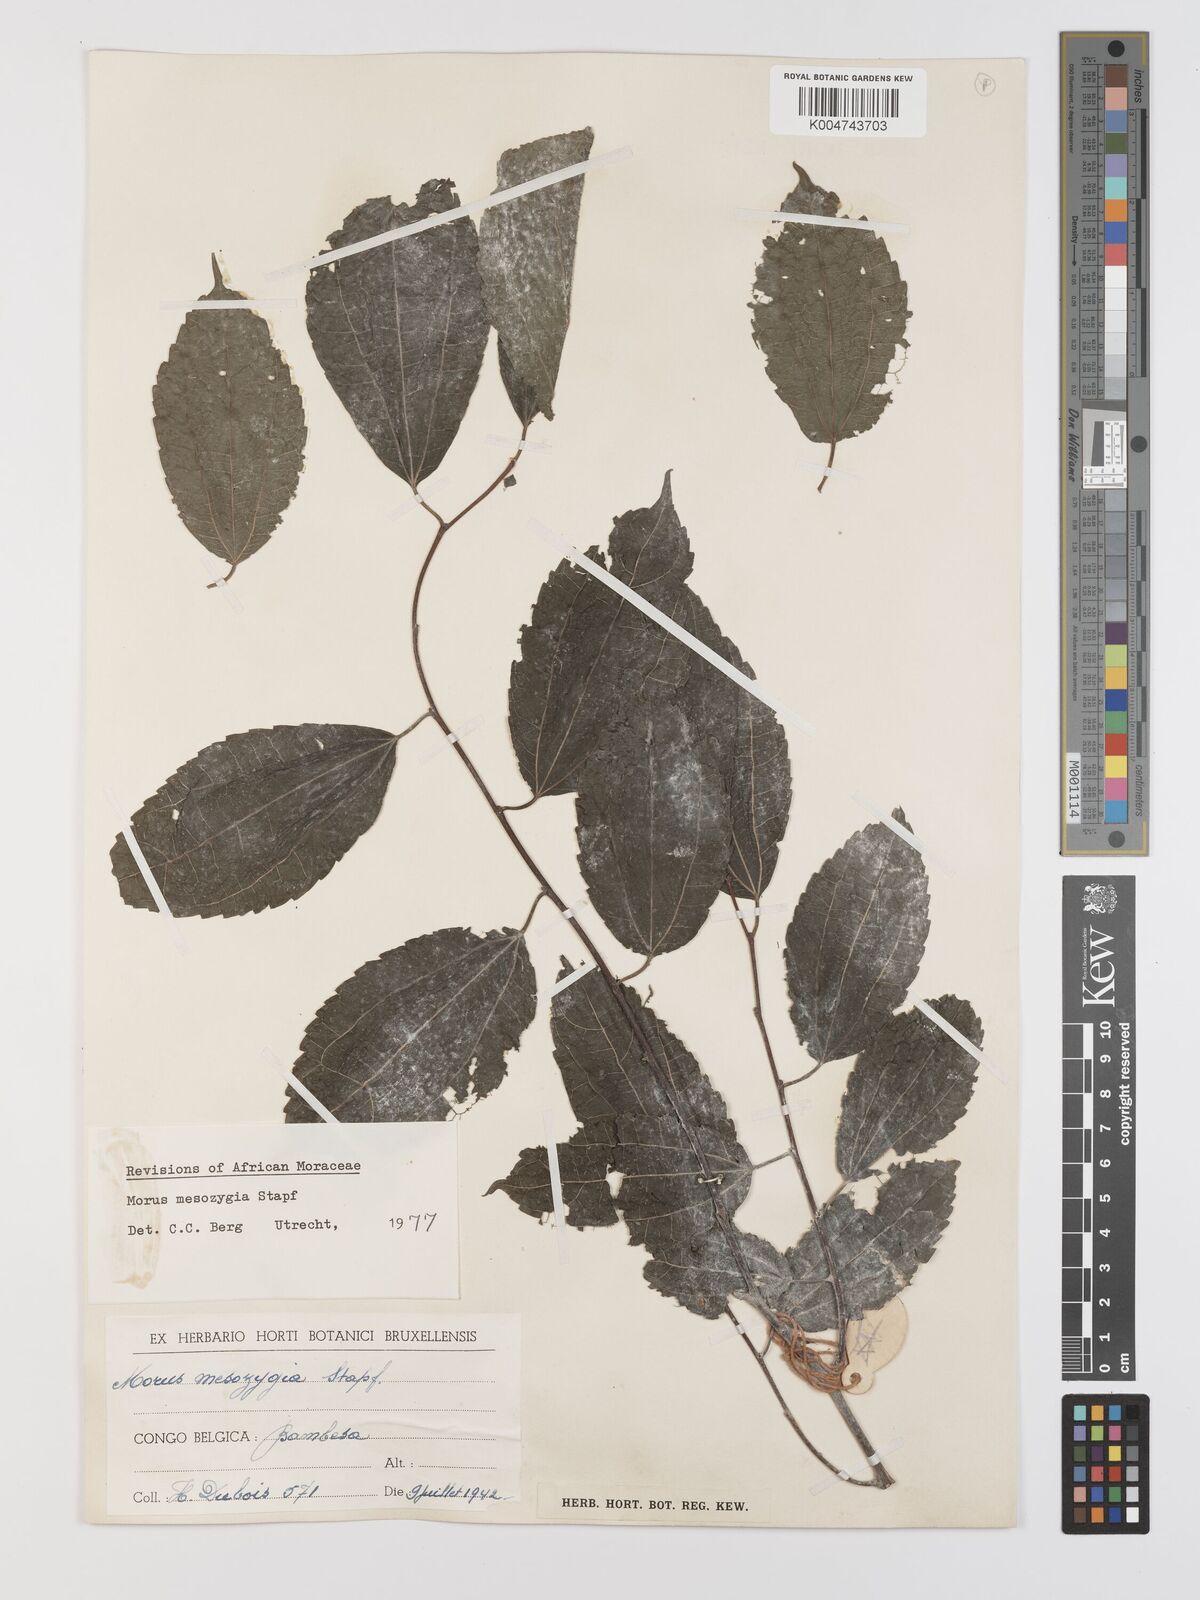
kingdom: Plantae
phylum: Tracheophyta
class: Magnoliopsida
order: Rosales
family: Moraceae
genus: Afromorus
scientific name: Afromorus mesozygia
